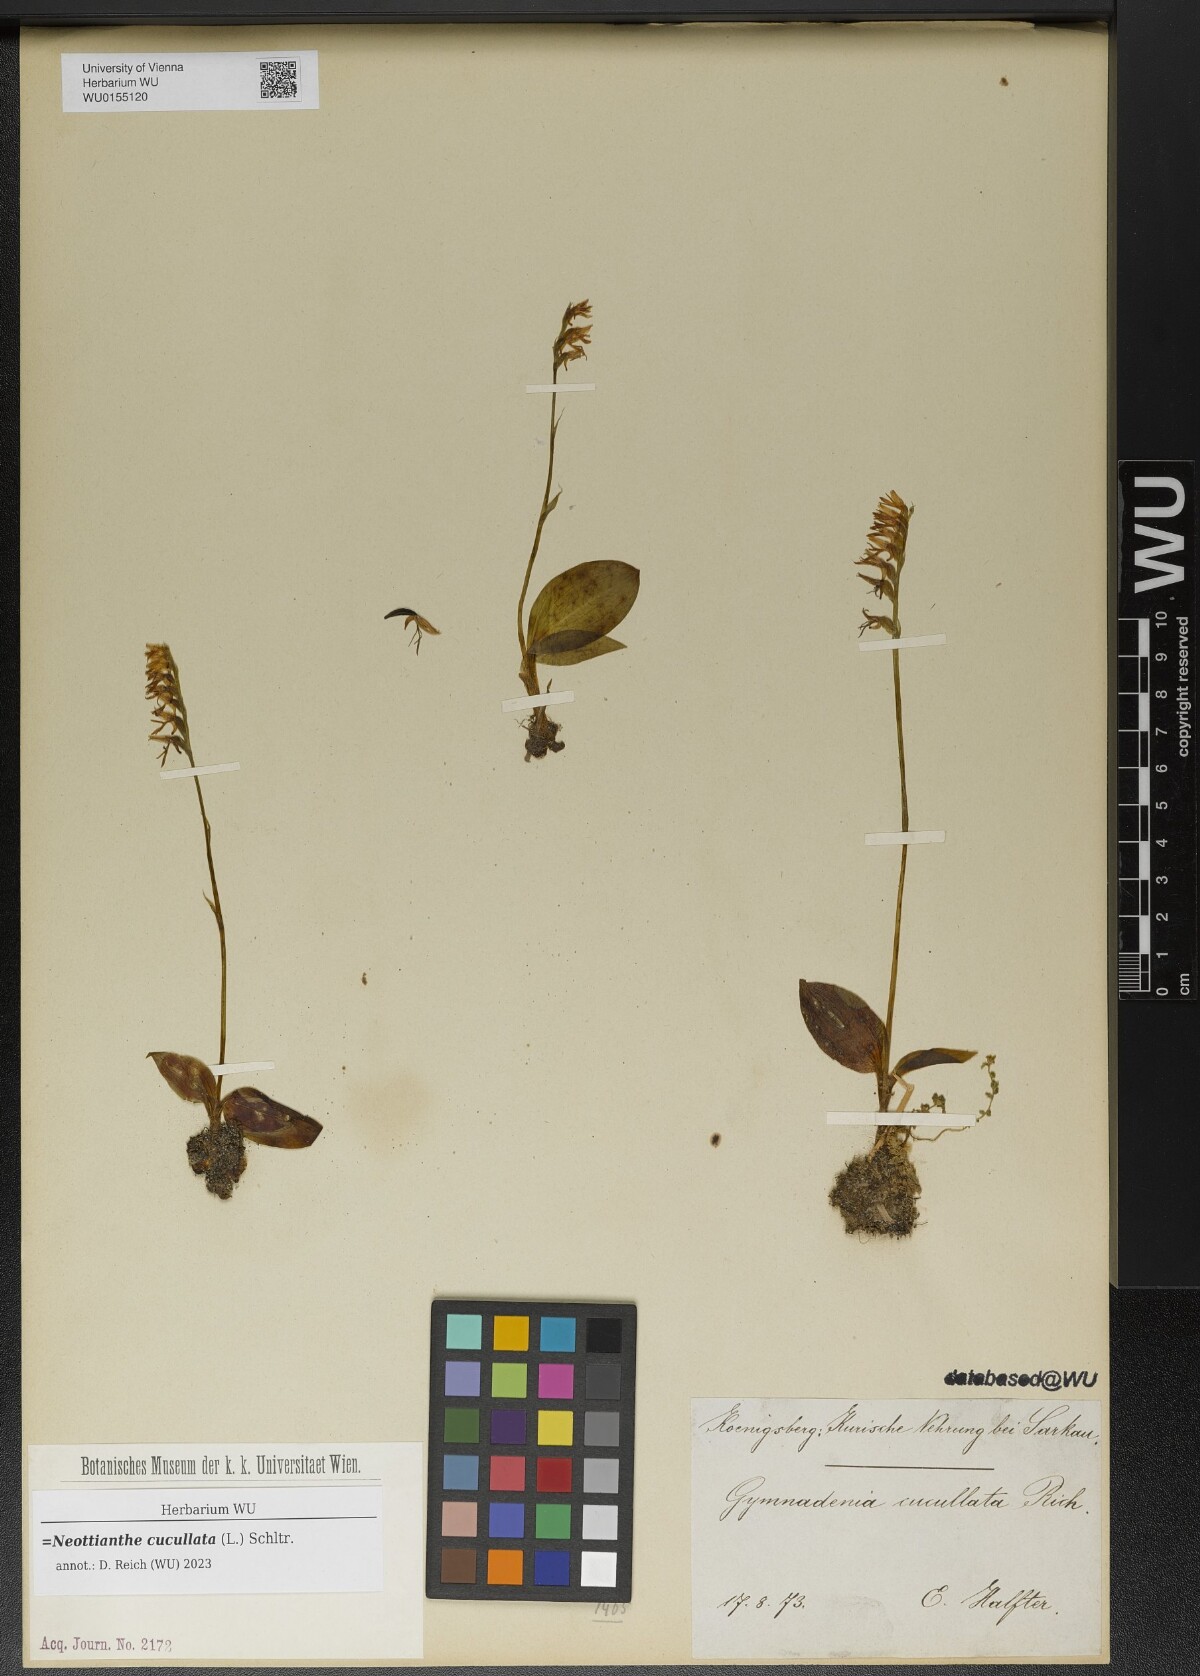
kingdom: Plantae
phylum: Tracheophyta
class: Liliopsida
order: Asparagales
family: Orchidaceae
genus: Hemipilia
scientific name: Hemipilia cucullata
